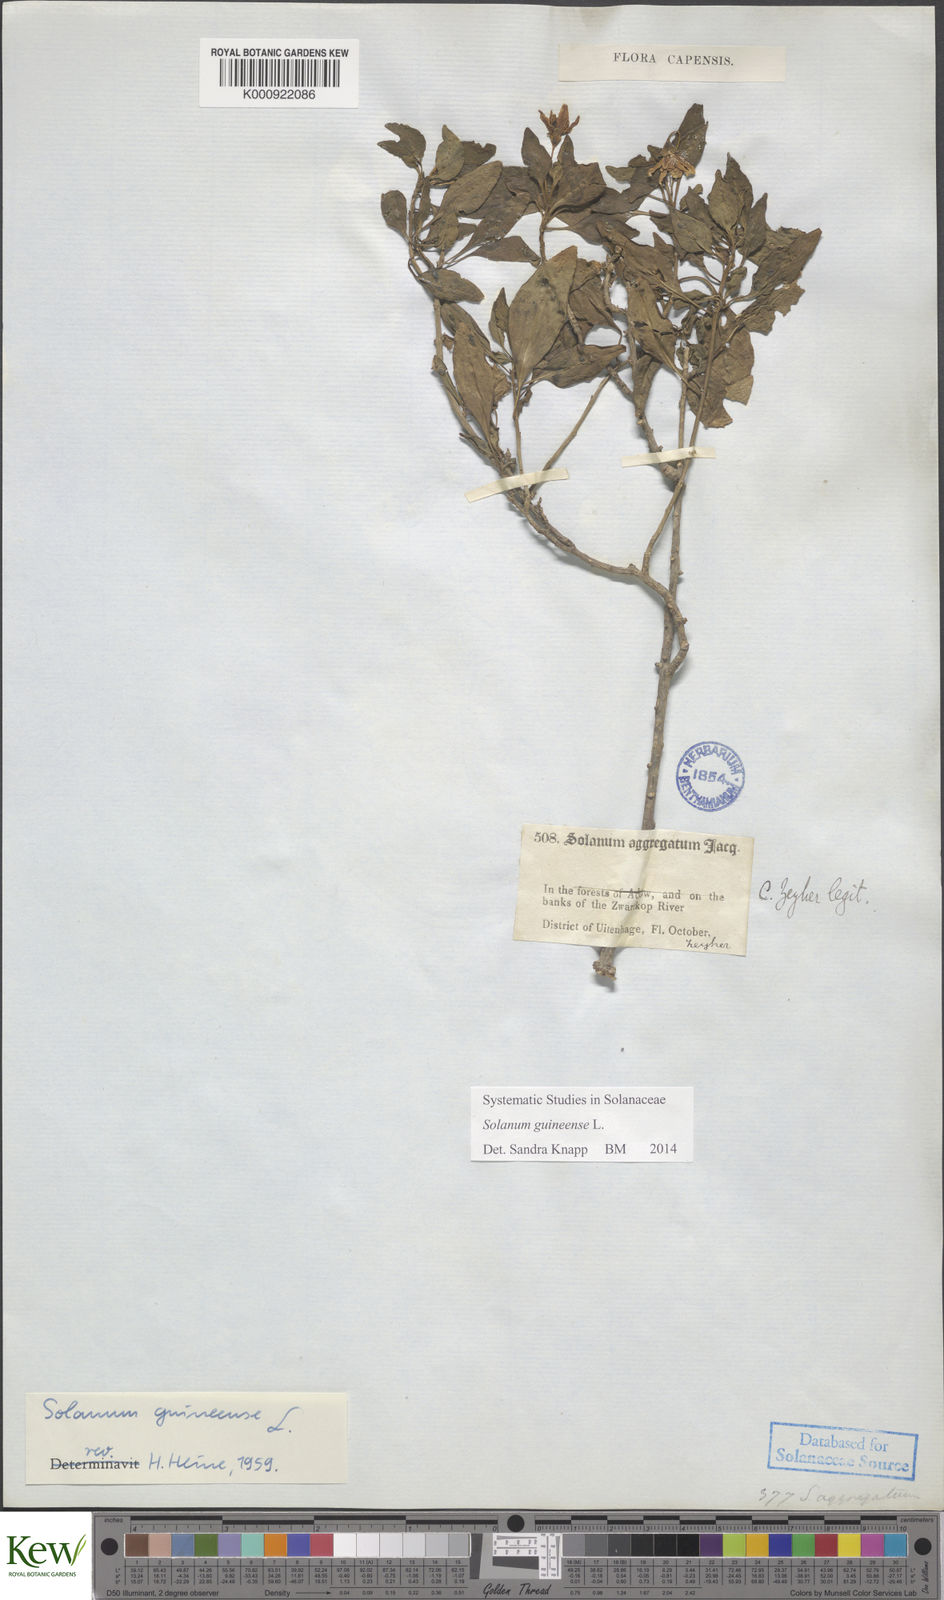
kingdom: Plantae
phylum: Tracheophyta
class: Magnoliopsida
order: Solanales
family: Solanaceae
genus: Solanum
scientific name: Solanum guineense
